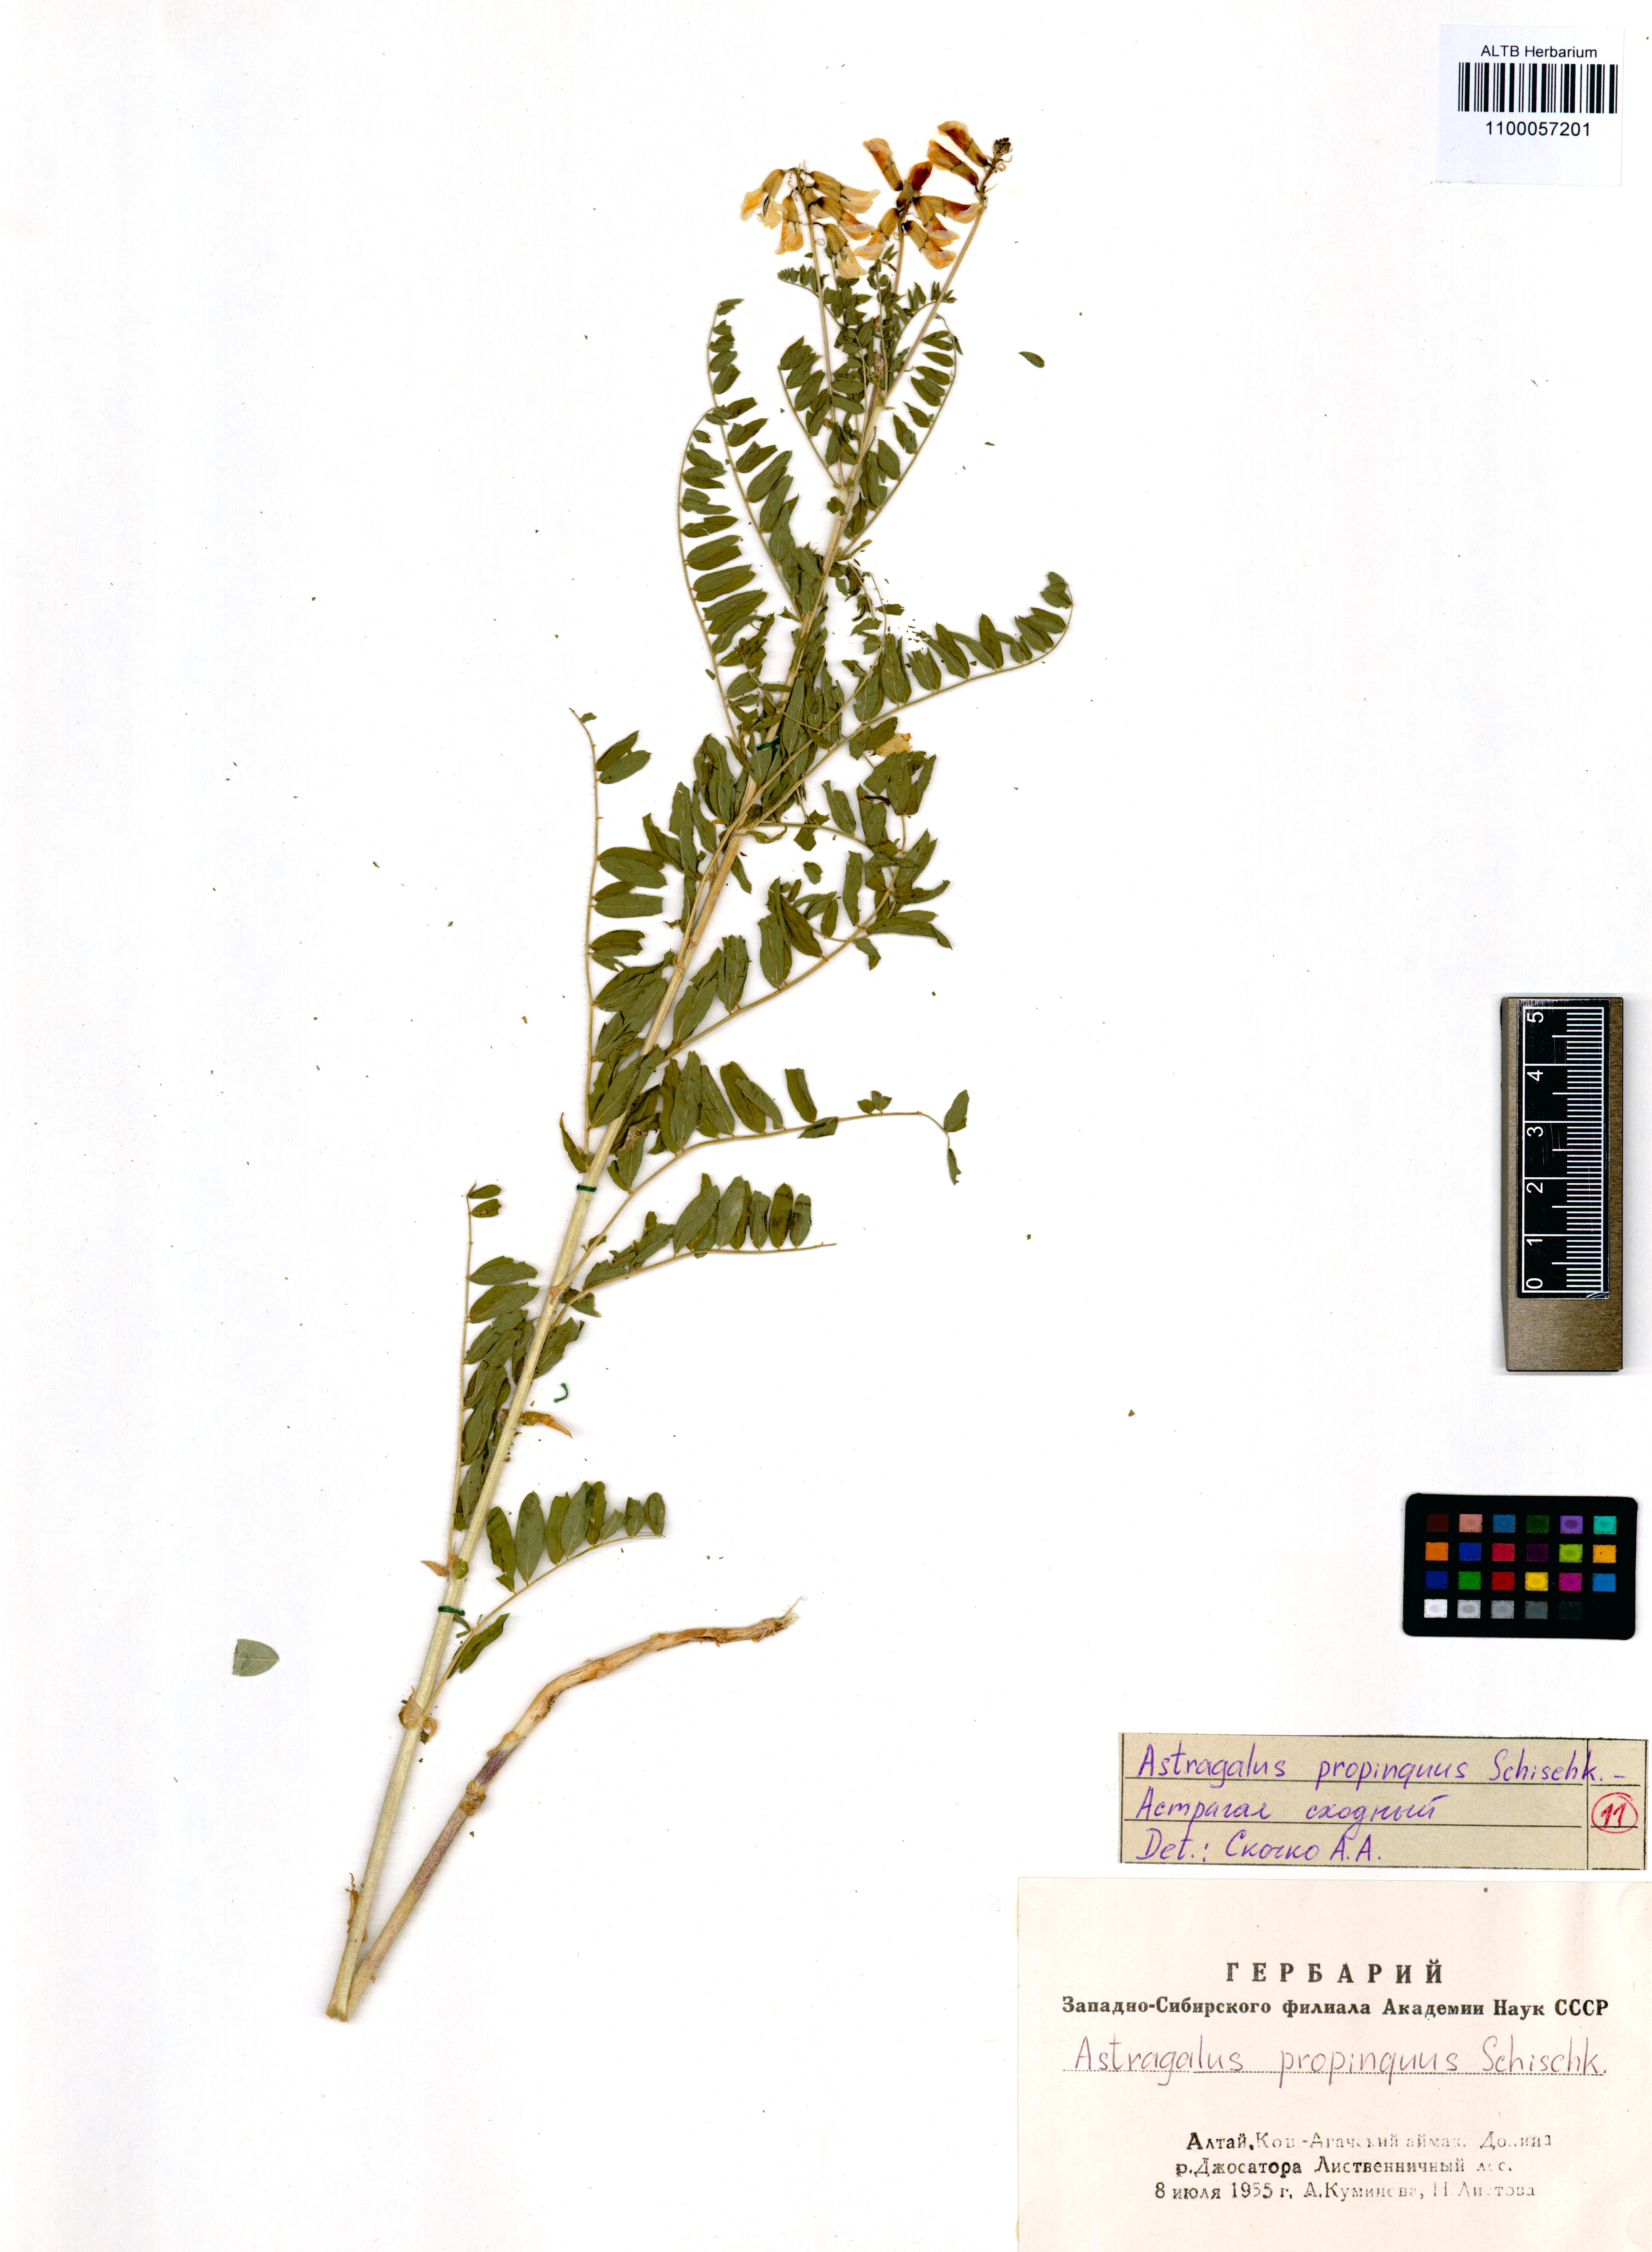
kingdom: Plantae
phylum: Tracheophyta
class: Magnoliopsida
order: Fabales
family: Fabaceae
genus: Astragalus
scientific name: Astragalus mongholicus
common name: Membranous milk-vetch
